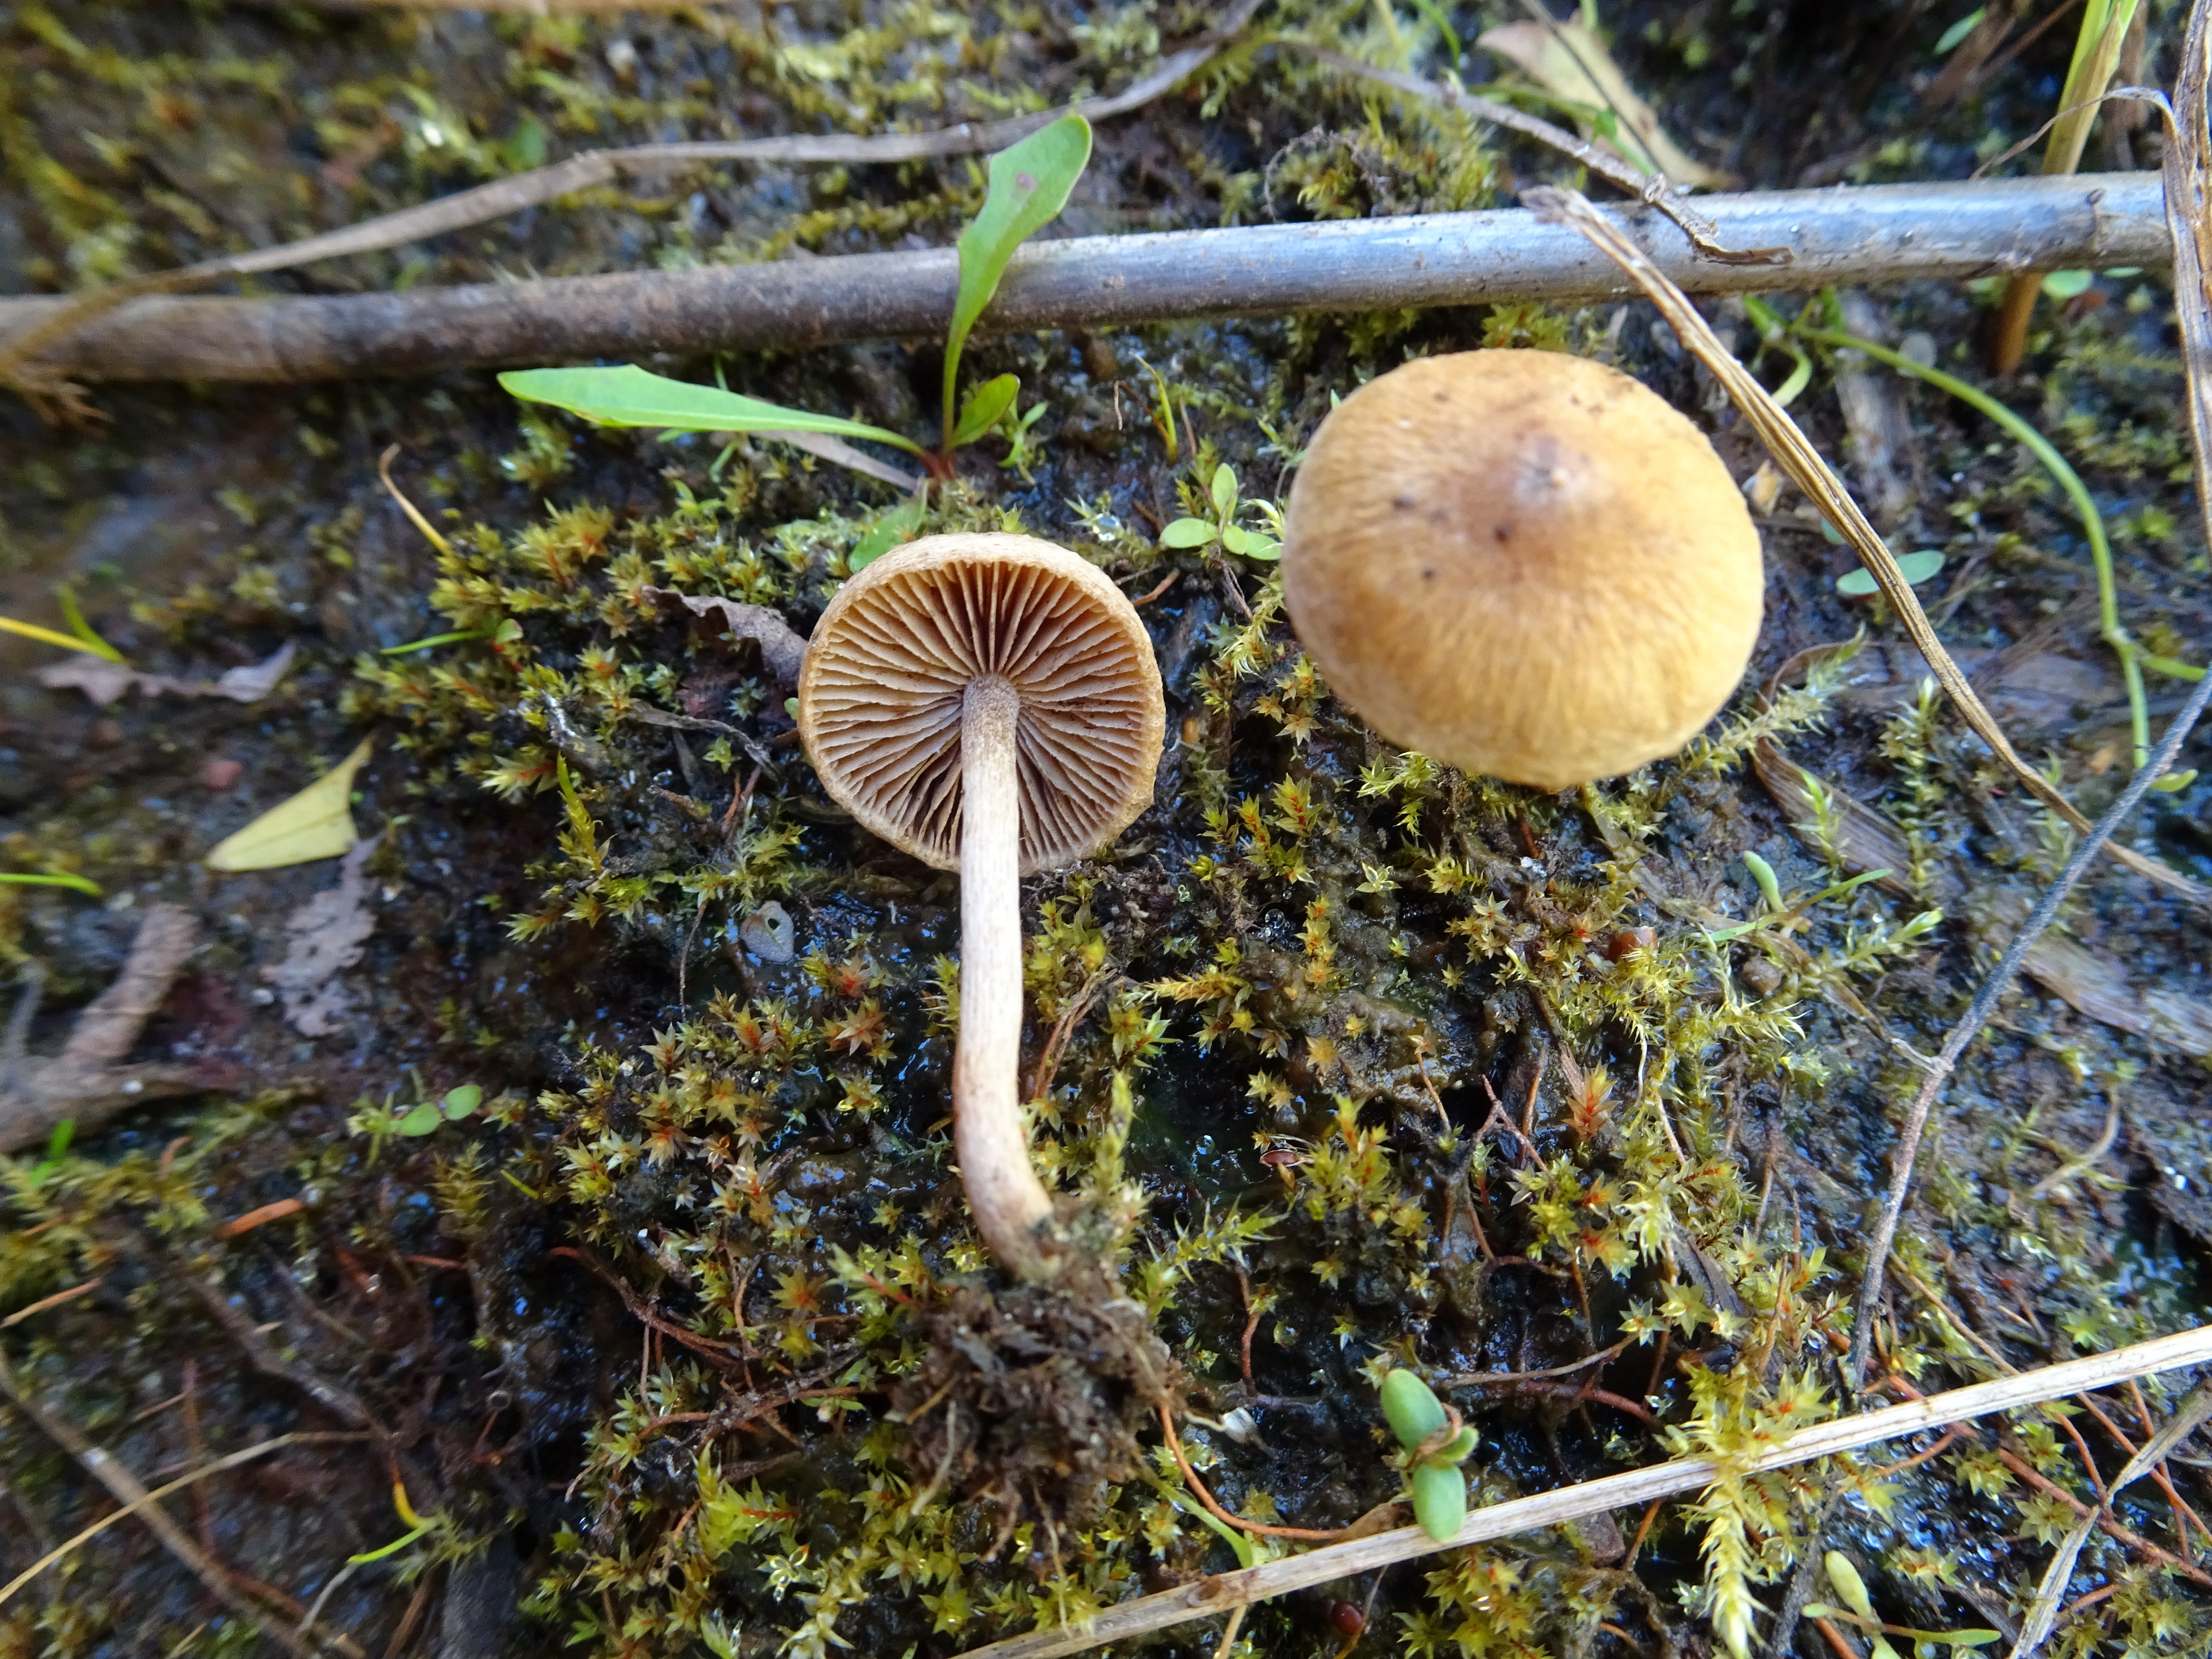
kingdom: Fungi
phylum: Basidiomycota
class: Agaricomycetes
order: Agaricales
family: Inocybaceae
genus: Inocybe
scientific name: Inocybe
